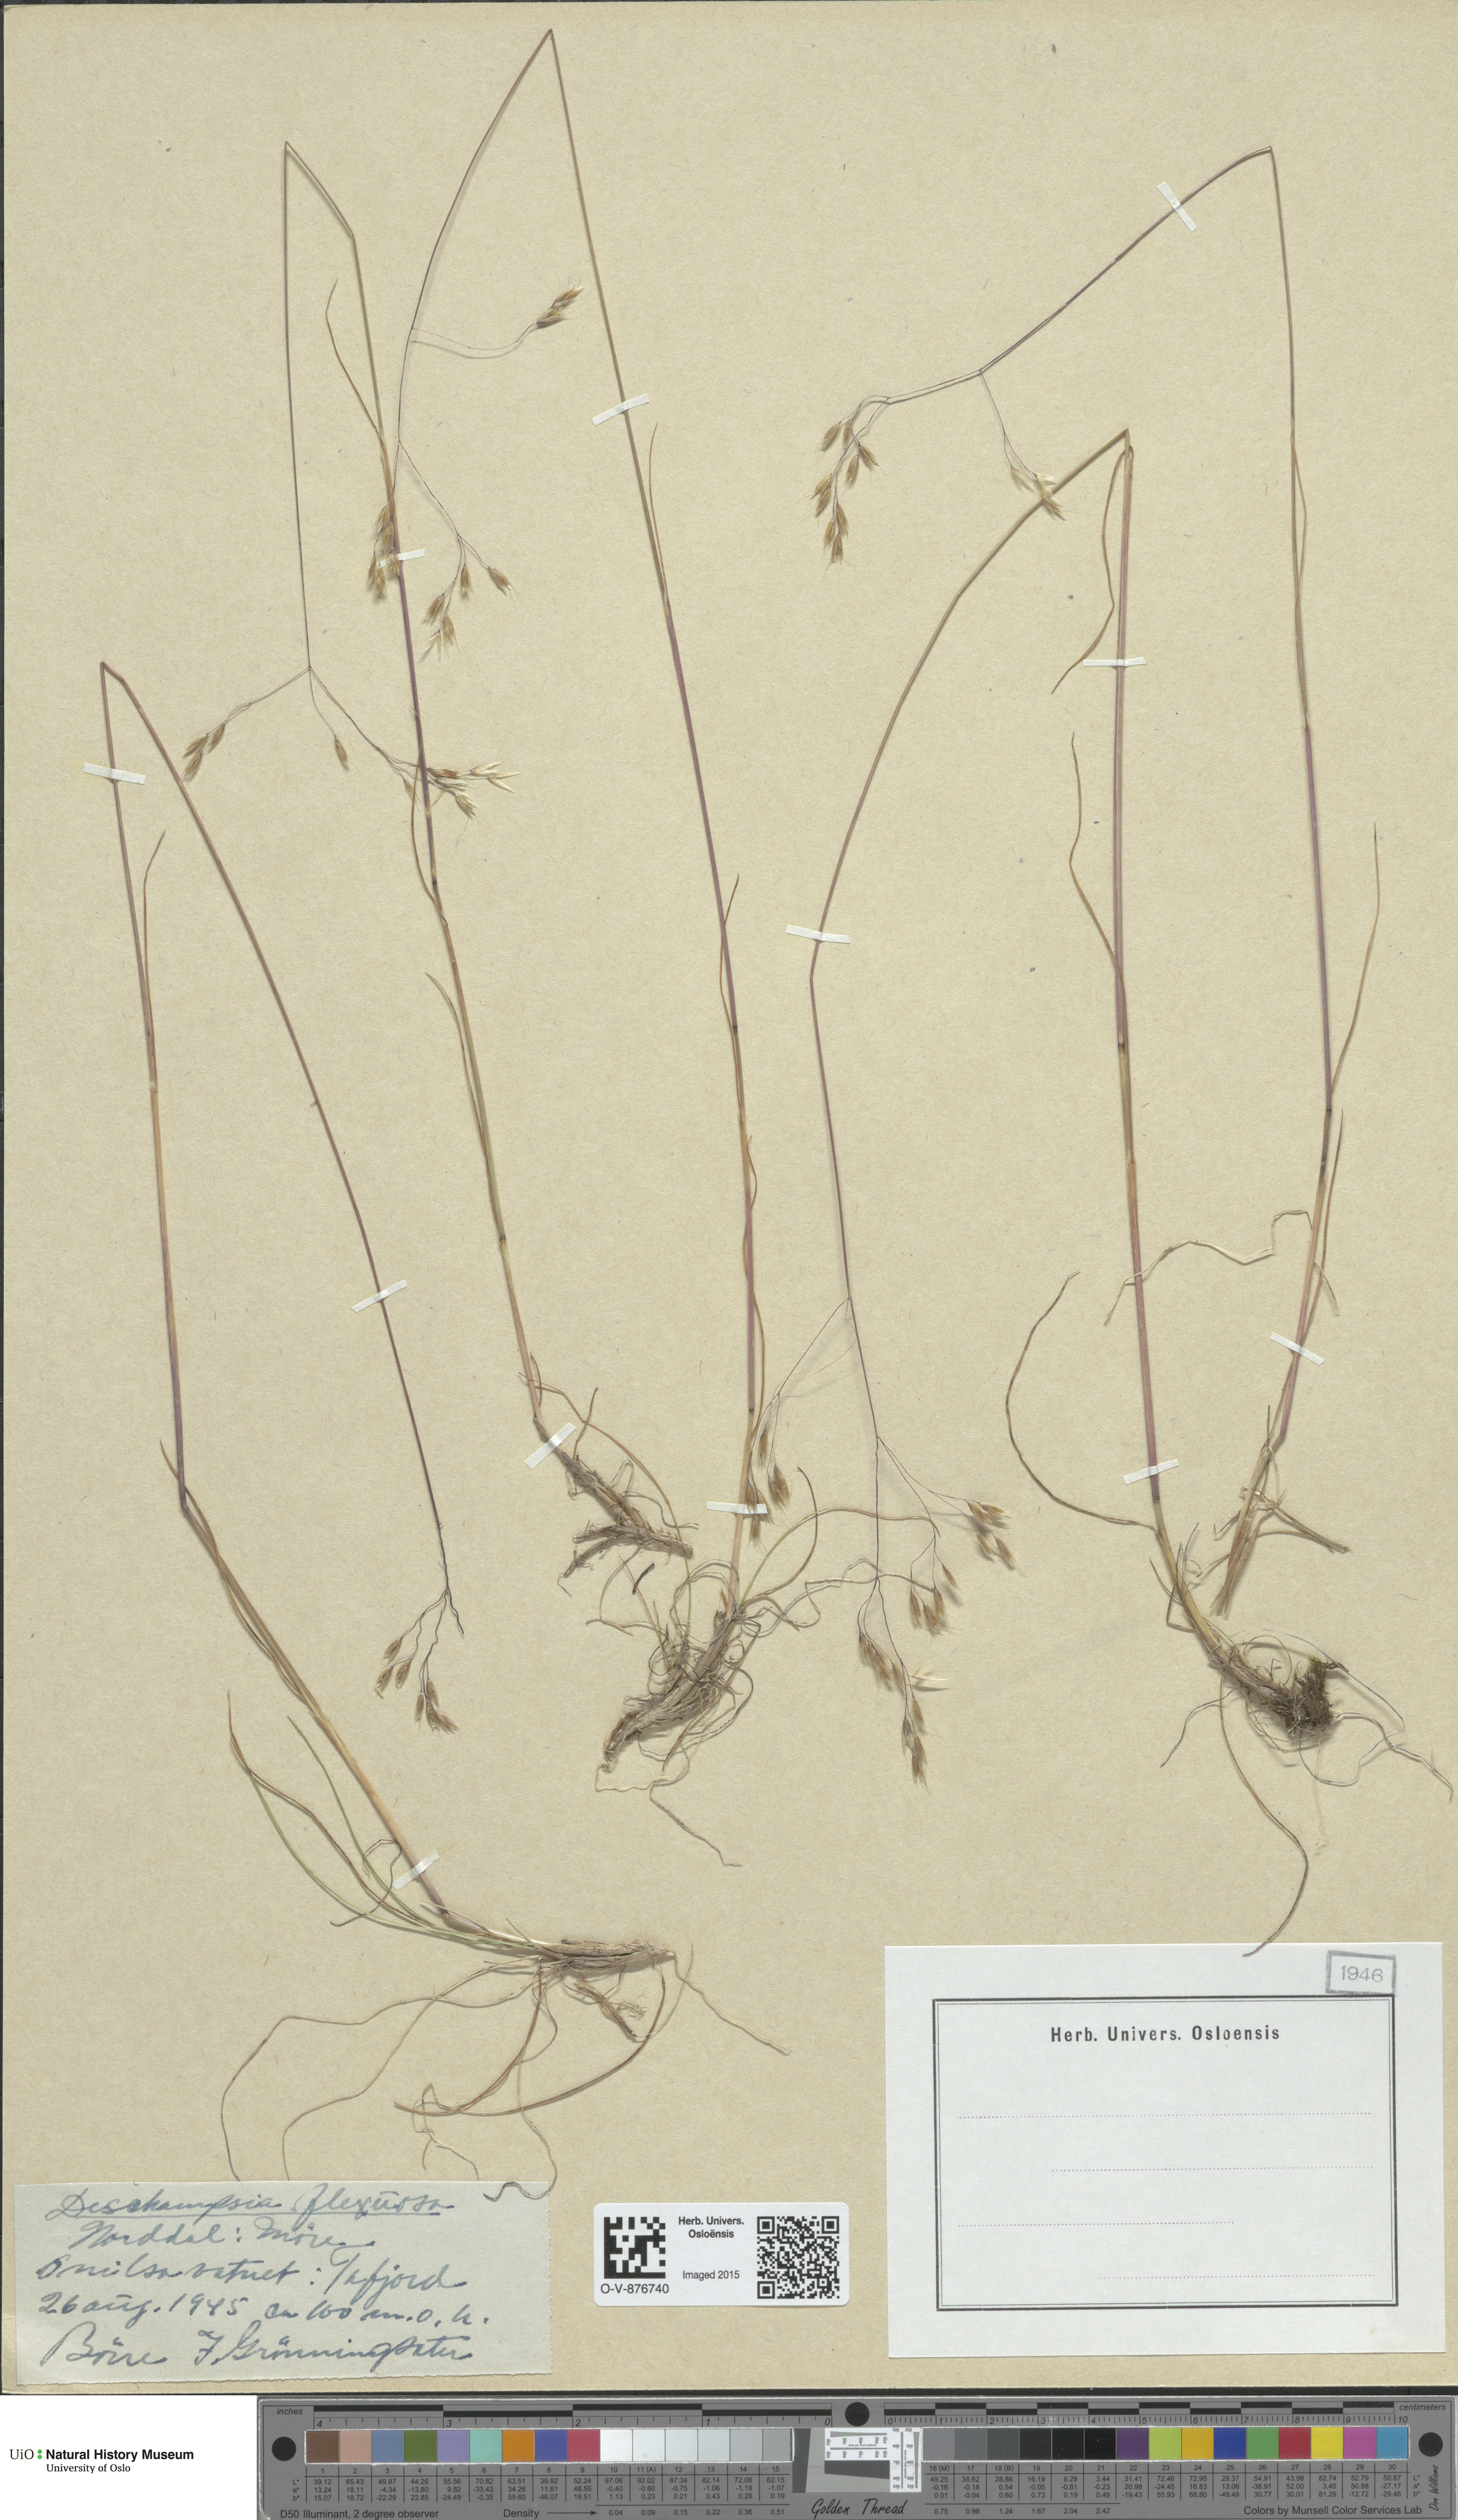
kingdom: Plantae
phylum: Tracheophyta
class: Liliopsida
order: Poales
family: Poaceae
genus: Avenella
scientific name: Avenella flexuosa
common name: Wavy hairgrass
